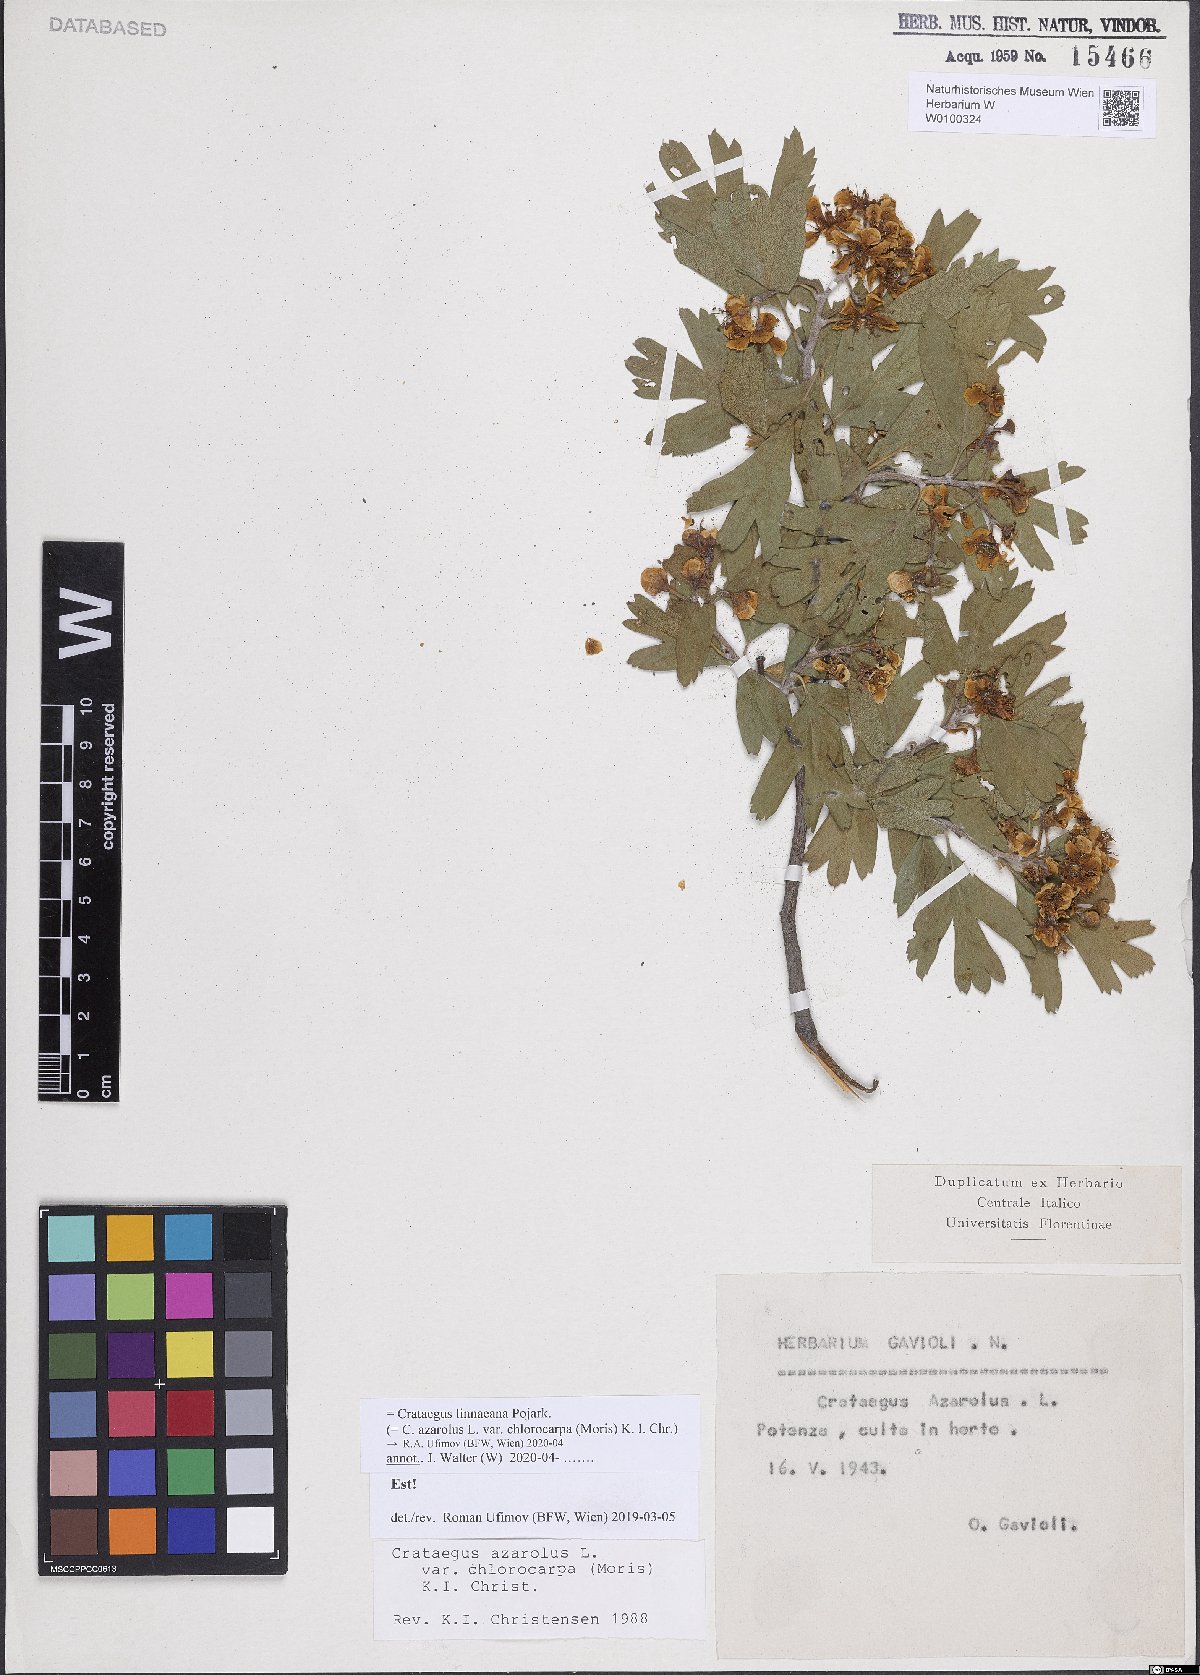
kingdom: Plantae
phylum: Tracheophyta
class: Magnoliopsida
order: Rosales
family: Rosaceae
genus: Crataegus
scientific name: Crataegus azarolus
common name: Azarole
